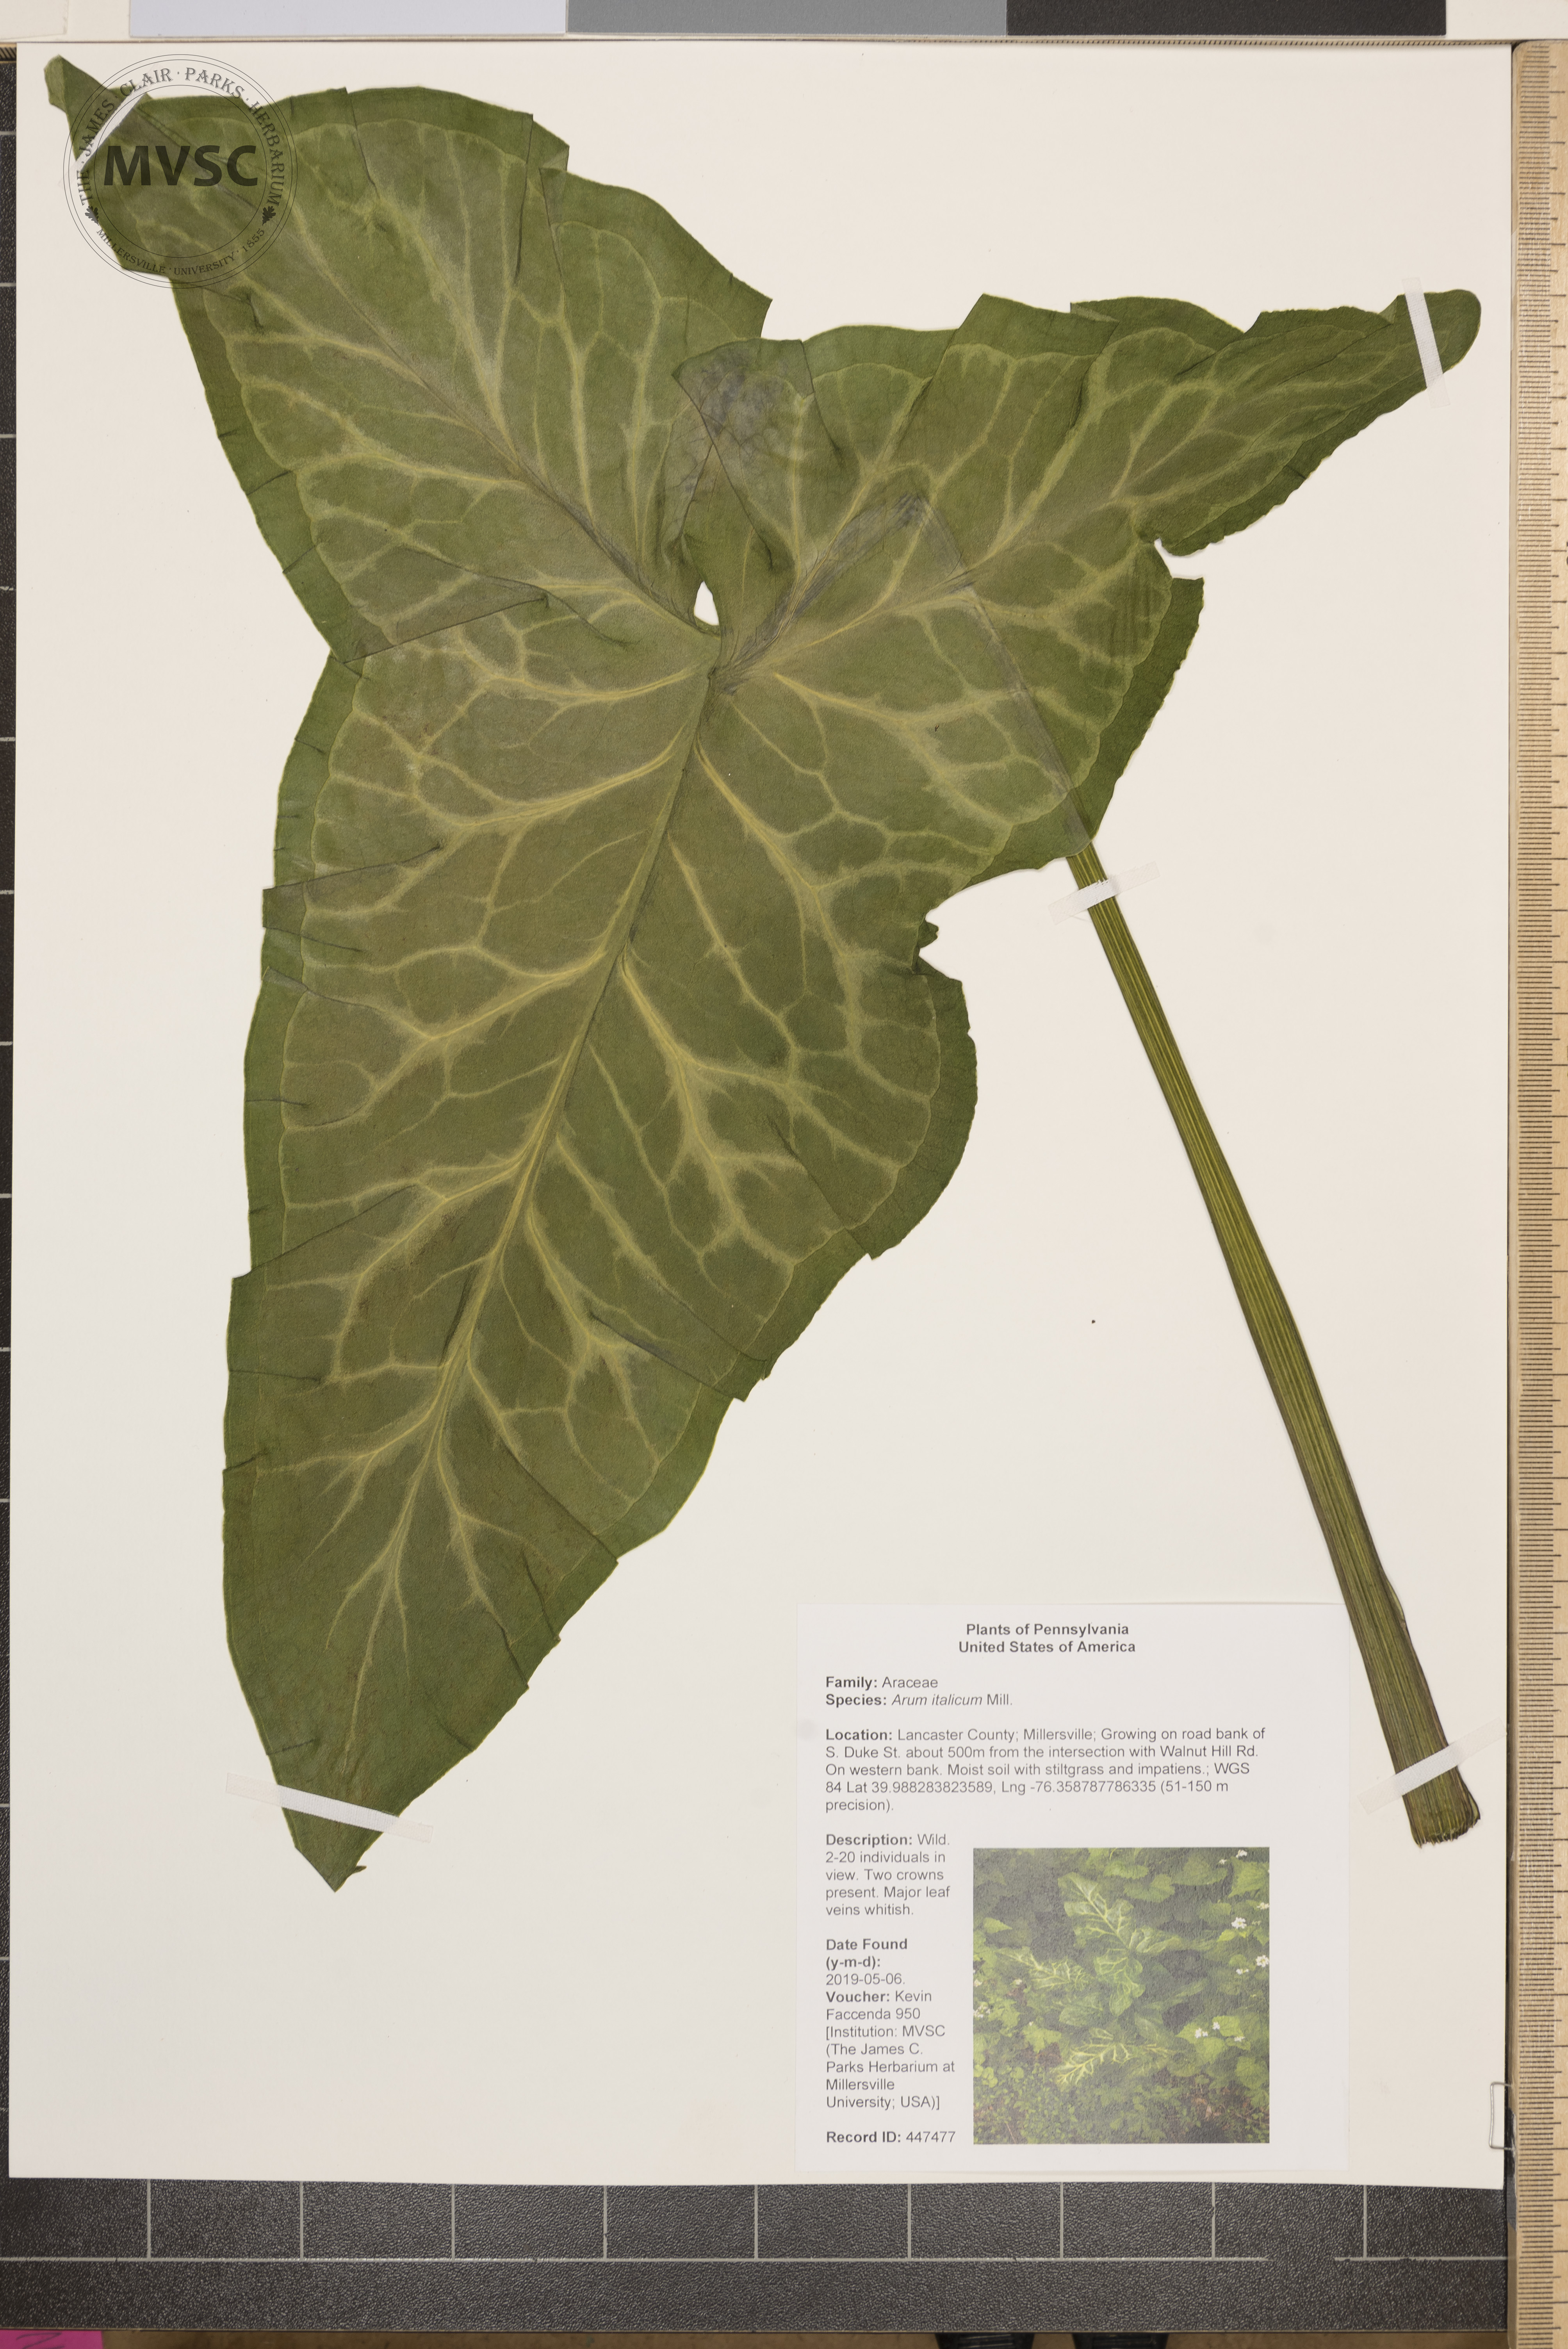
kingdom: Plantae
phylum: Tracheophyta
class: Liliopsida
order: Alismatales
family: Araceae
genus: Arum
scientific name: Arum italicum
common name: Italian lords-and-ladies
